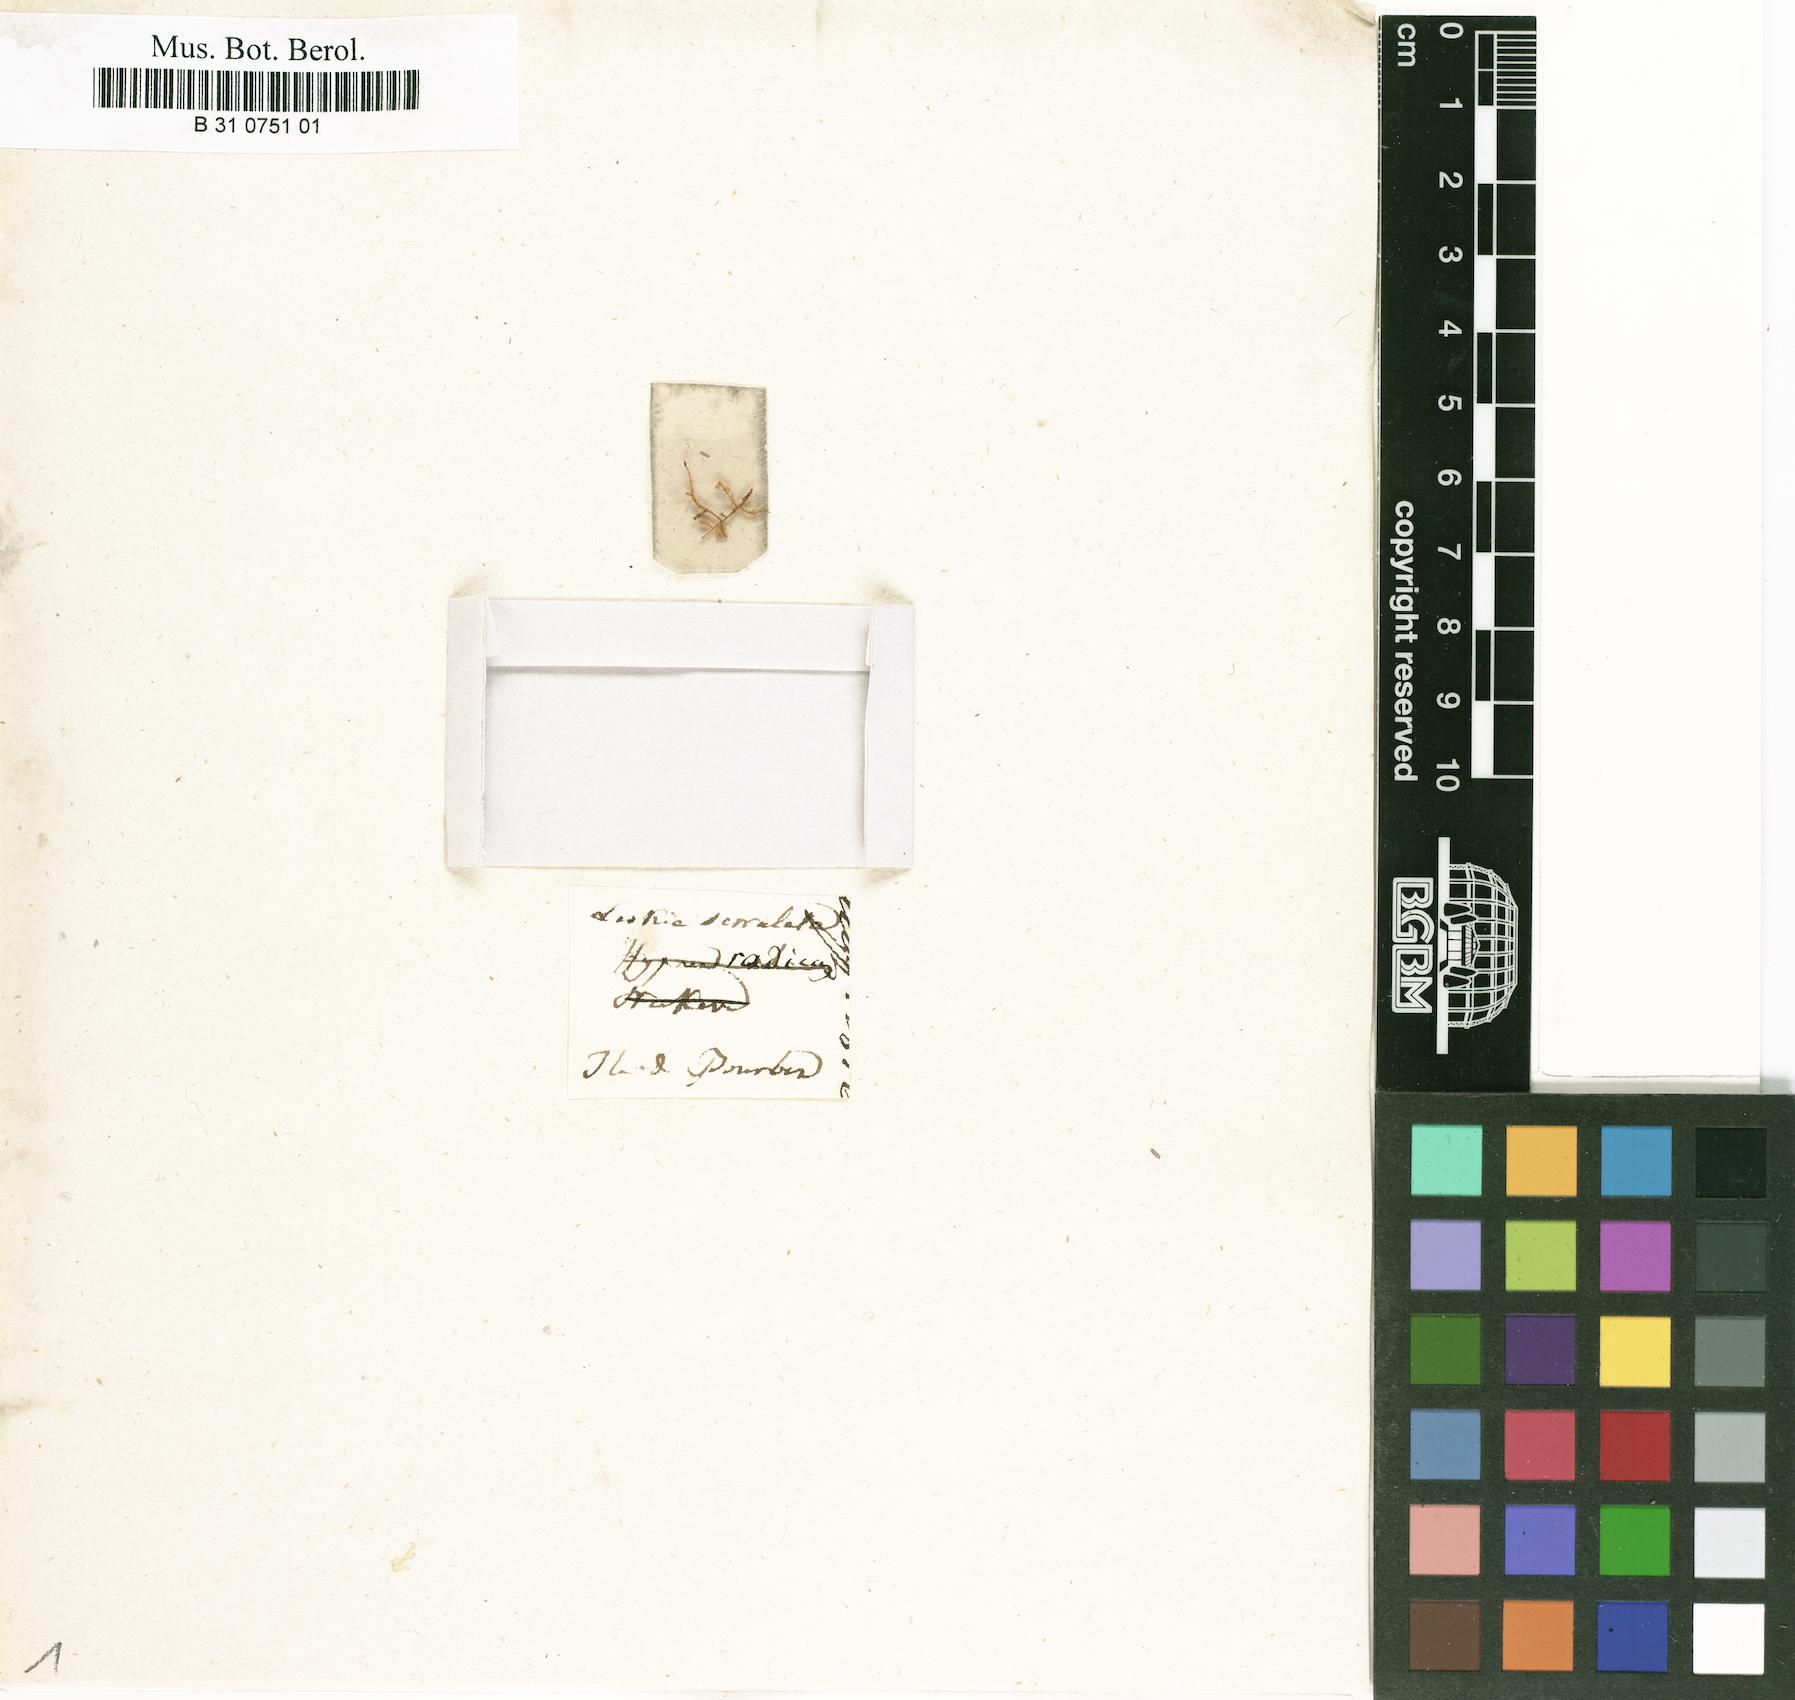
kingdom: Plantae
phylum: Bryophyta
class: Bryopsida
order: Hypnales
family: Pylaisiadelphaceae
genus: Isopterygium
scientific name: Isopterygium radicans
